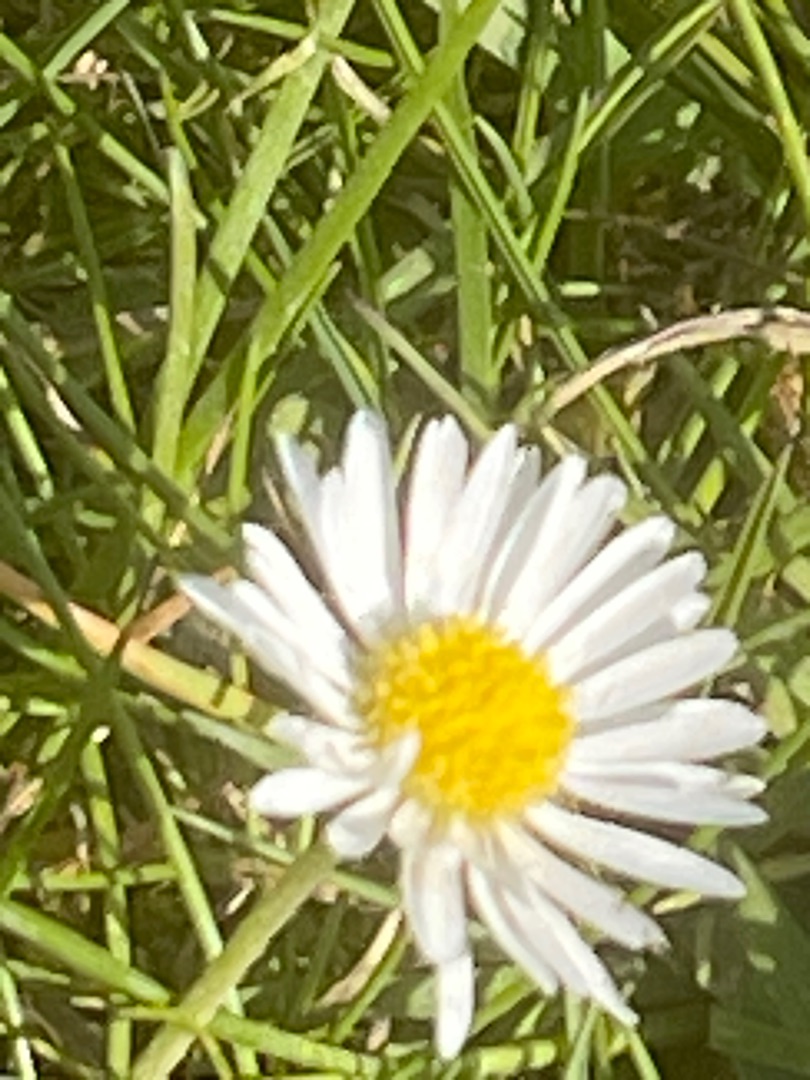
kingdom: Plantae
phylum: Tracheophyta
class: Magnoliopsida
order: Asterales
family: Asteraceae
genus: Bellis
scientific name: Bellis perennis
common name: Tusindfryd
